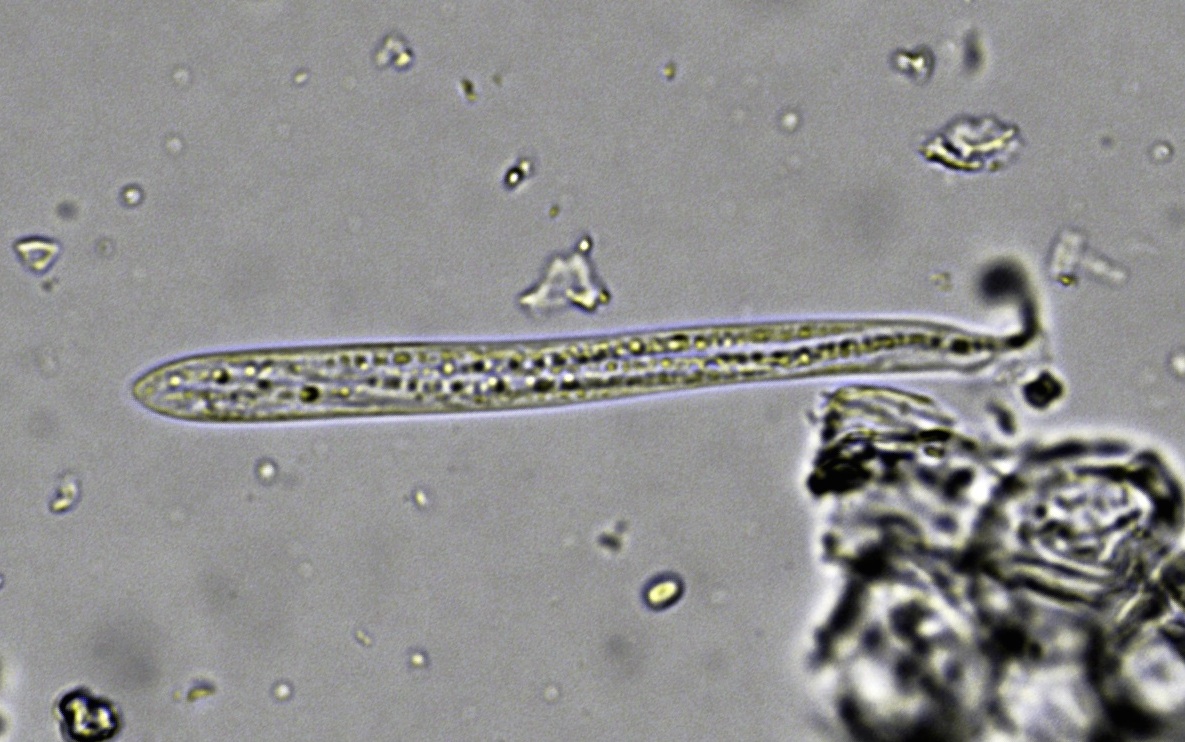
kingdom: Fungi
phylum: Ascomycota
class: Leotiomycetes
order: Rhytismatales
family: Rhytismataceae
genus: Lophodermium
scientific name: Lophodermium typhinum
